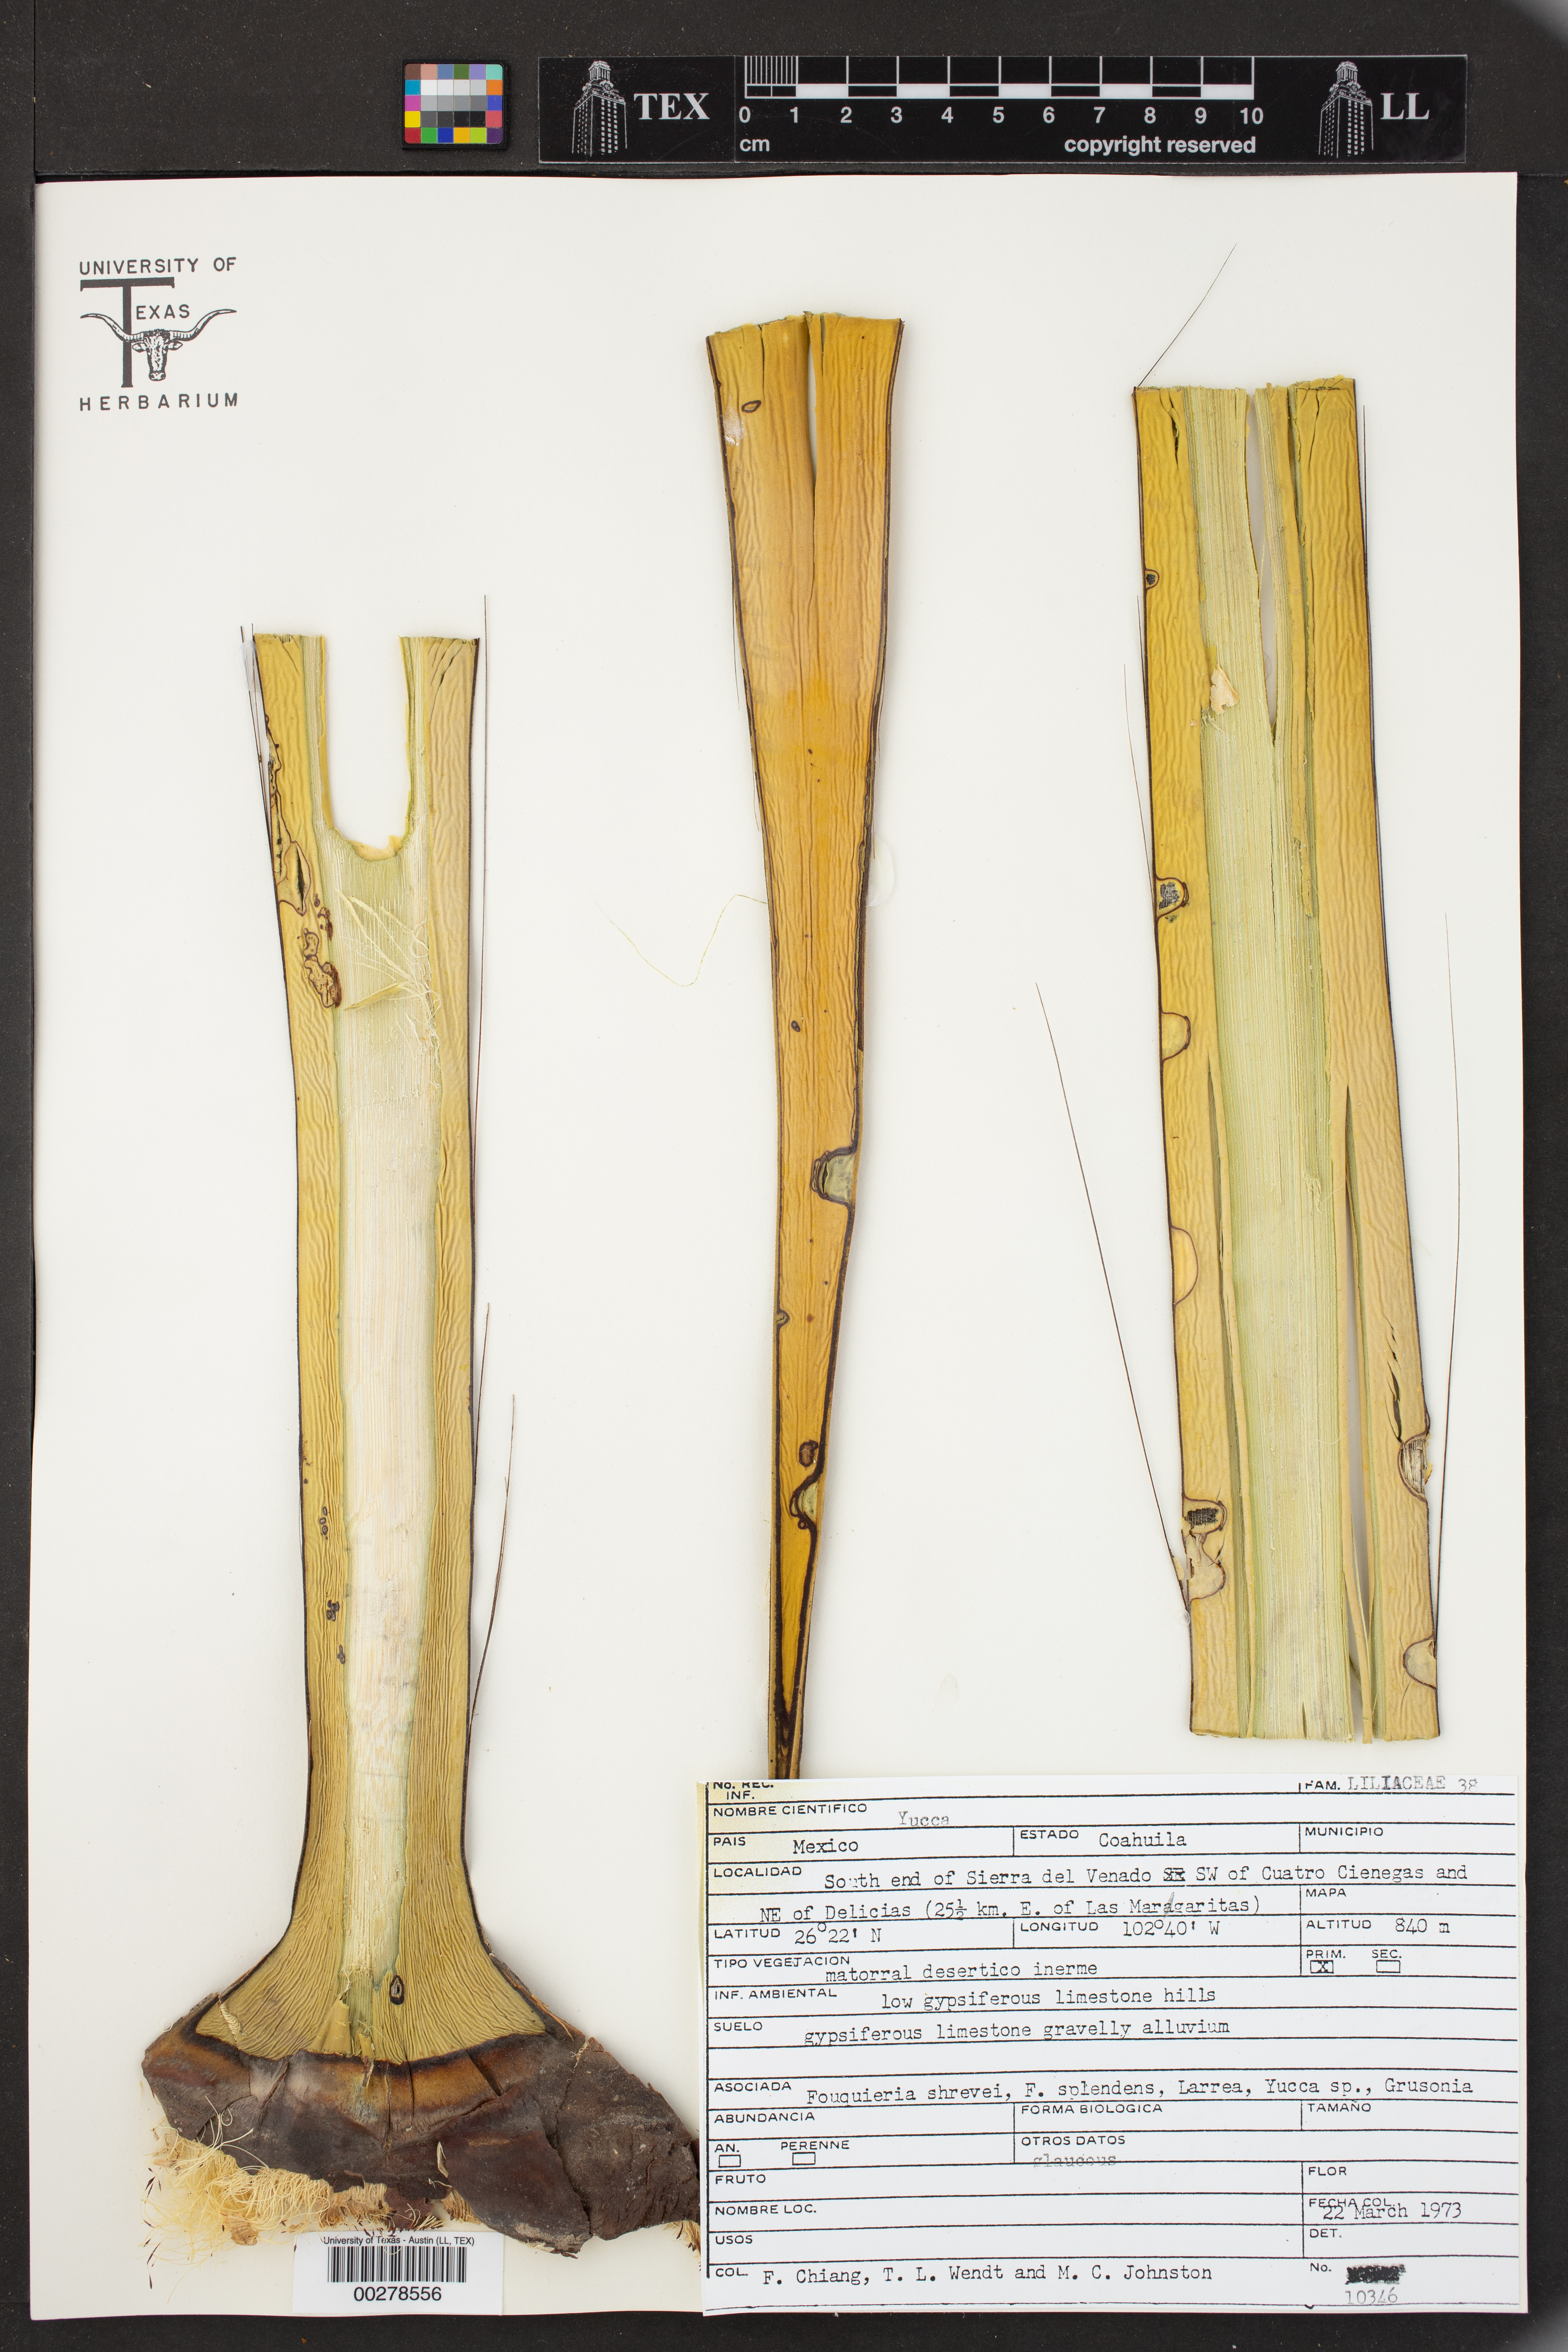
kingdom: Plantae
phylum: Tracheophyta
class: Liliopsida
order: Asparagales
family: Asparagaceae
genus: Yucca
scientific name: Yucca
